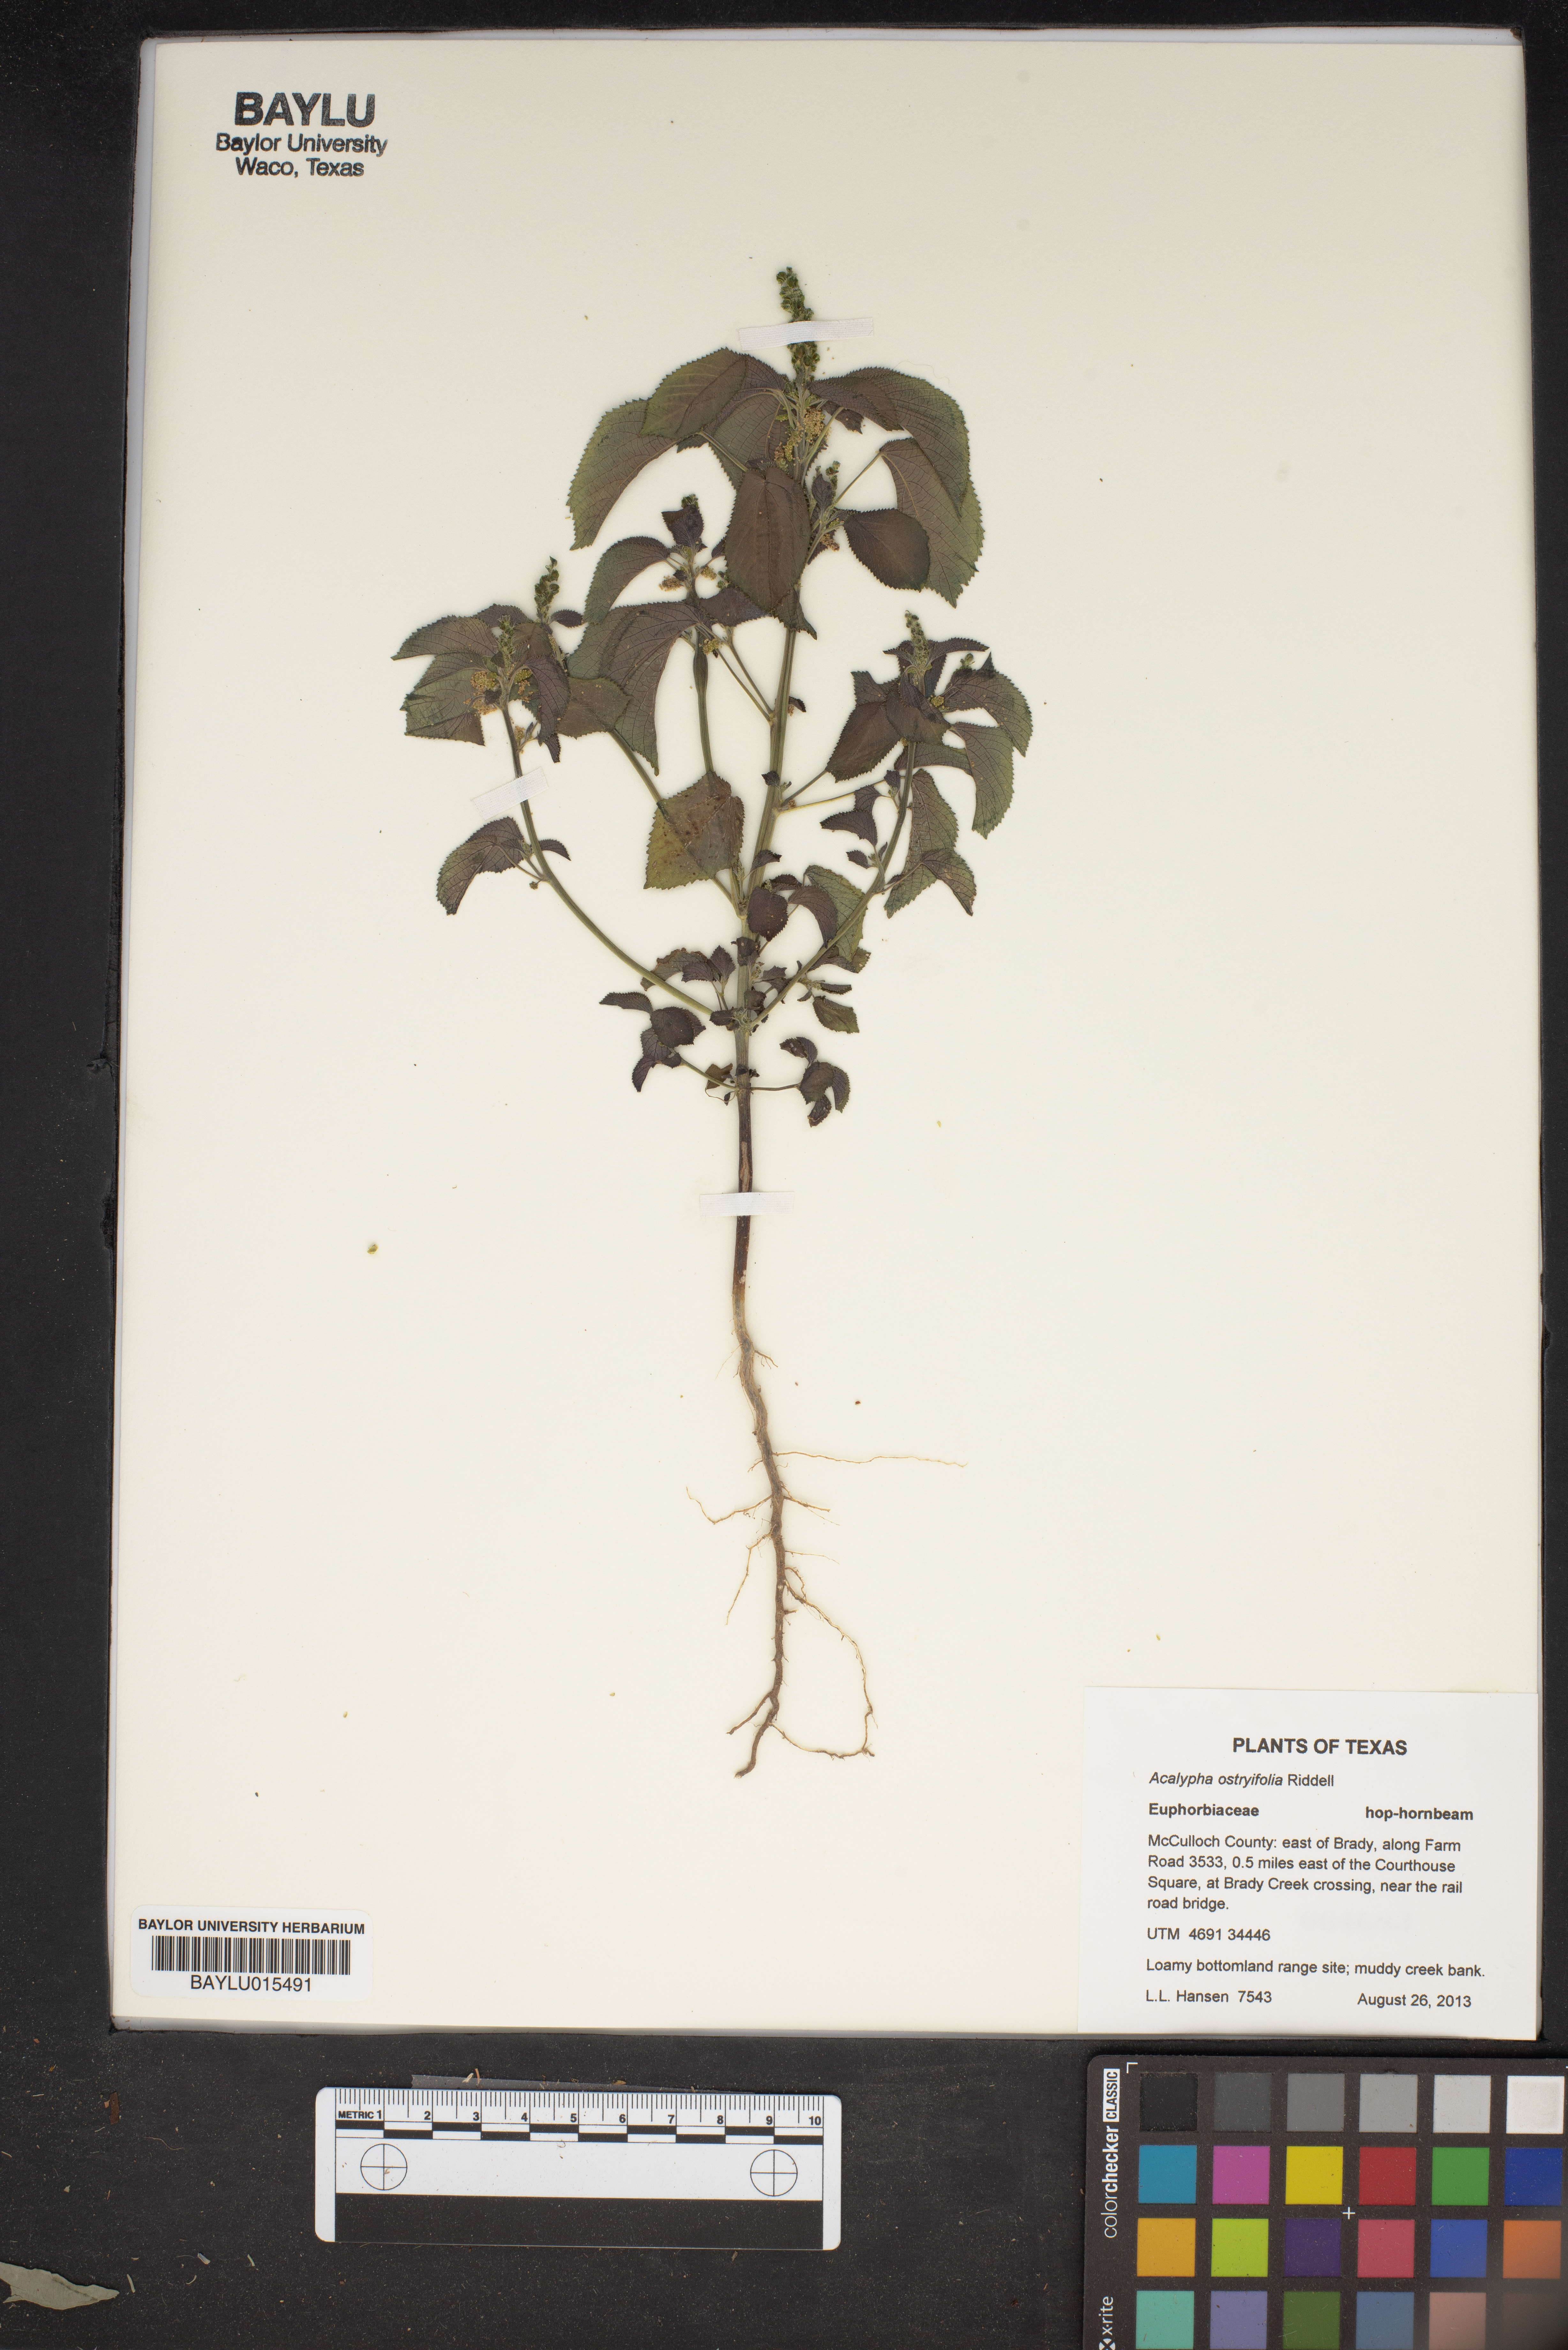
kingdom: Plantae
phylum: Tracheophyta
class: Magnoliopsida
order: Malpighiales
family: Euphorbiaceae
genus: Acalypha
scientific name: Acalypha persimilis
